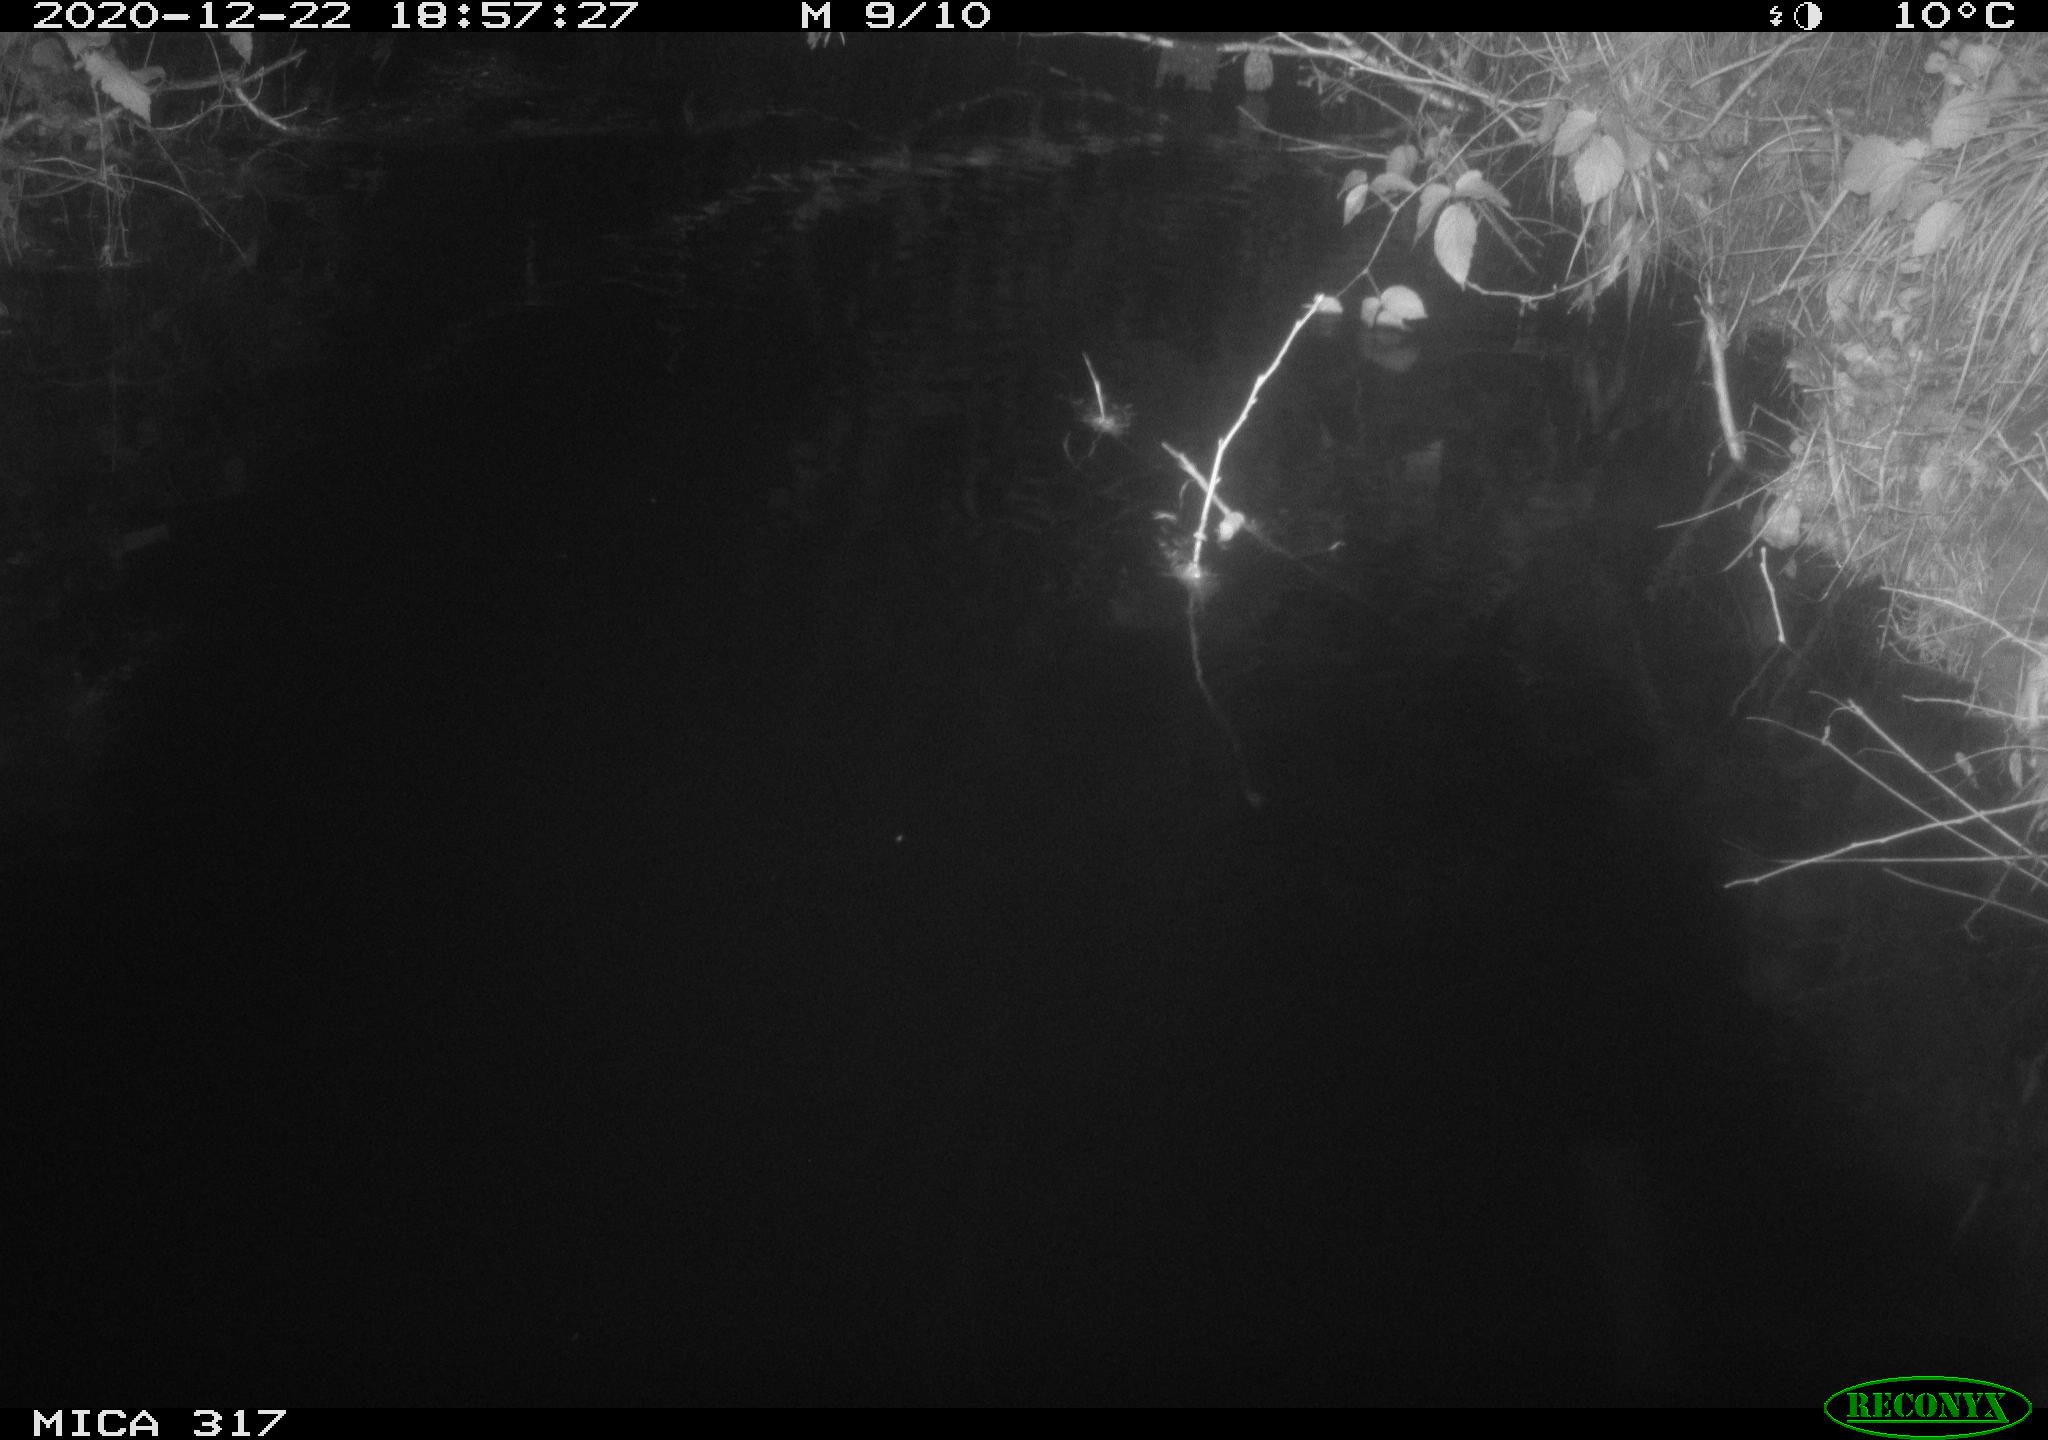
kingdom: Animalia
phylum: Chordata
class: Mammalia
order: Rodentia
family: Muridae
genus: Rattus
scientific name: Rattus norvegicus
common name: Brown rat
